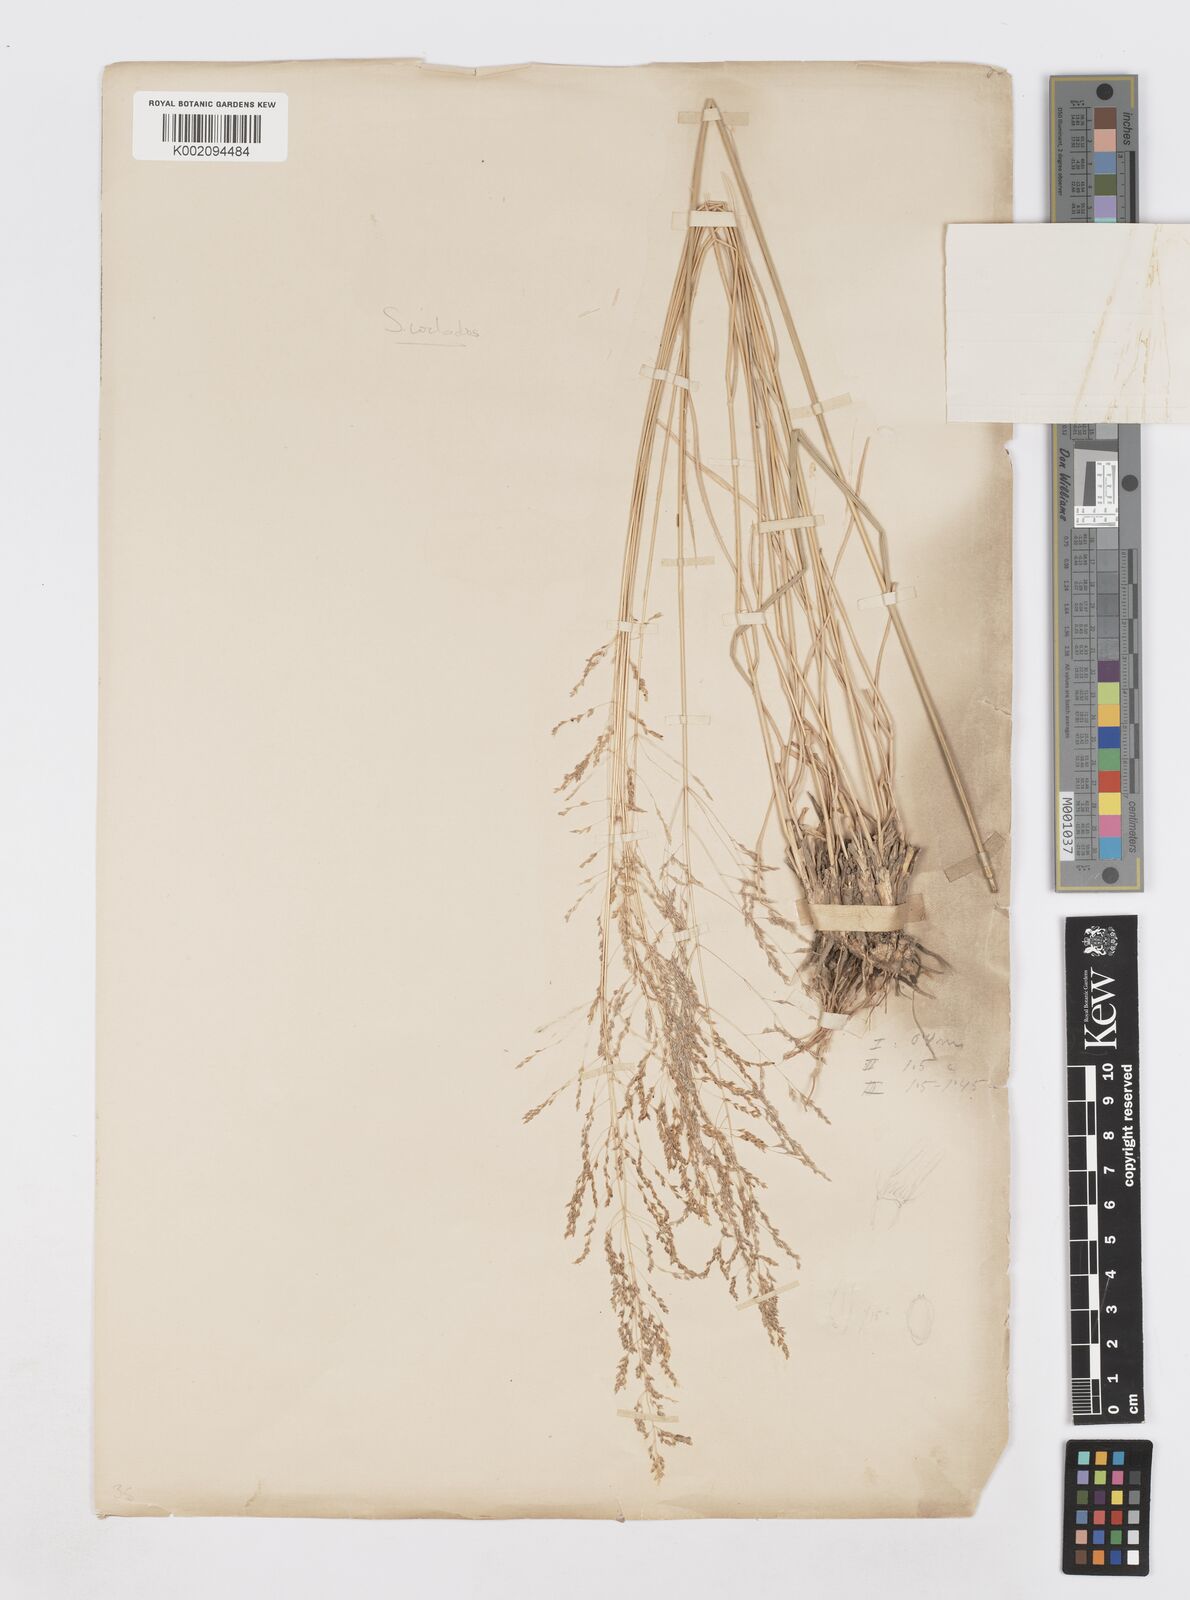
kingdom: Plantae
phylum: Tracheophyta
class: Liliopsida
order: Poales
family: Poaceae
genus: Sporobolus
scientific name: Sporobolus ioclados
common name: Pan dropseed
